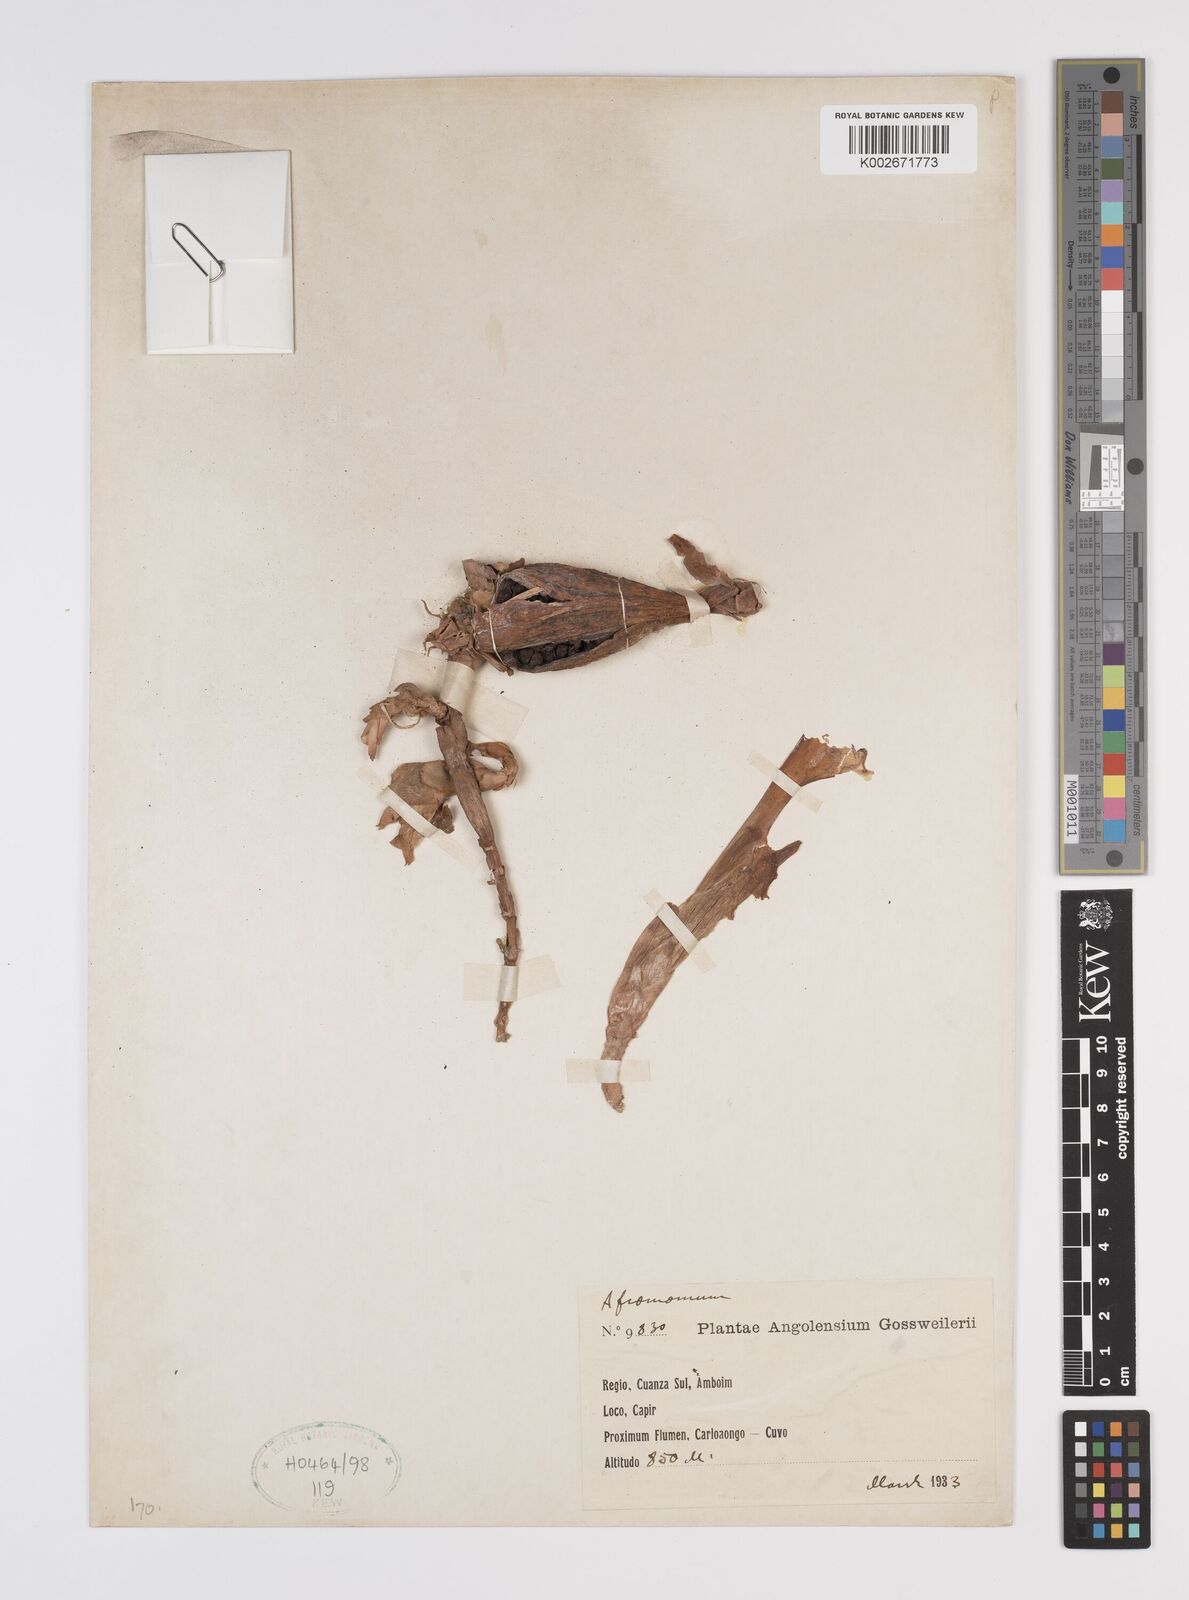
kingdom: Plantae
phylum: Tracheophyta
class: Liliopsida
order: Zingiberales
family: Zingiberaceae
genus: Aframomum
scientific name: Aframomum
